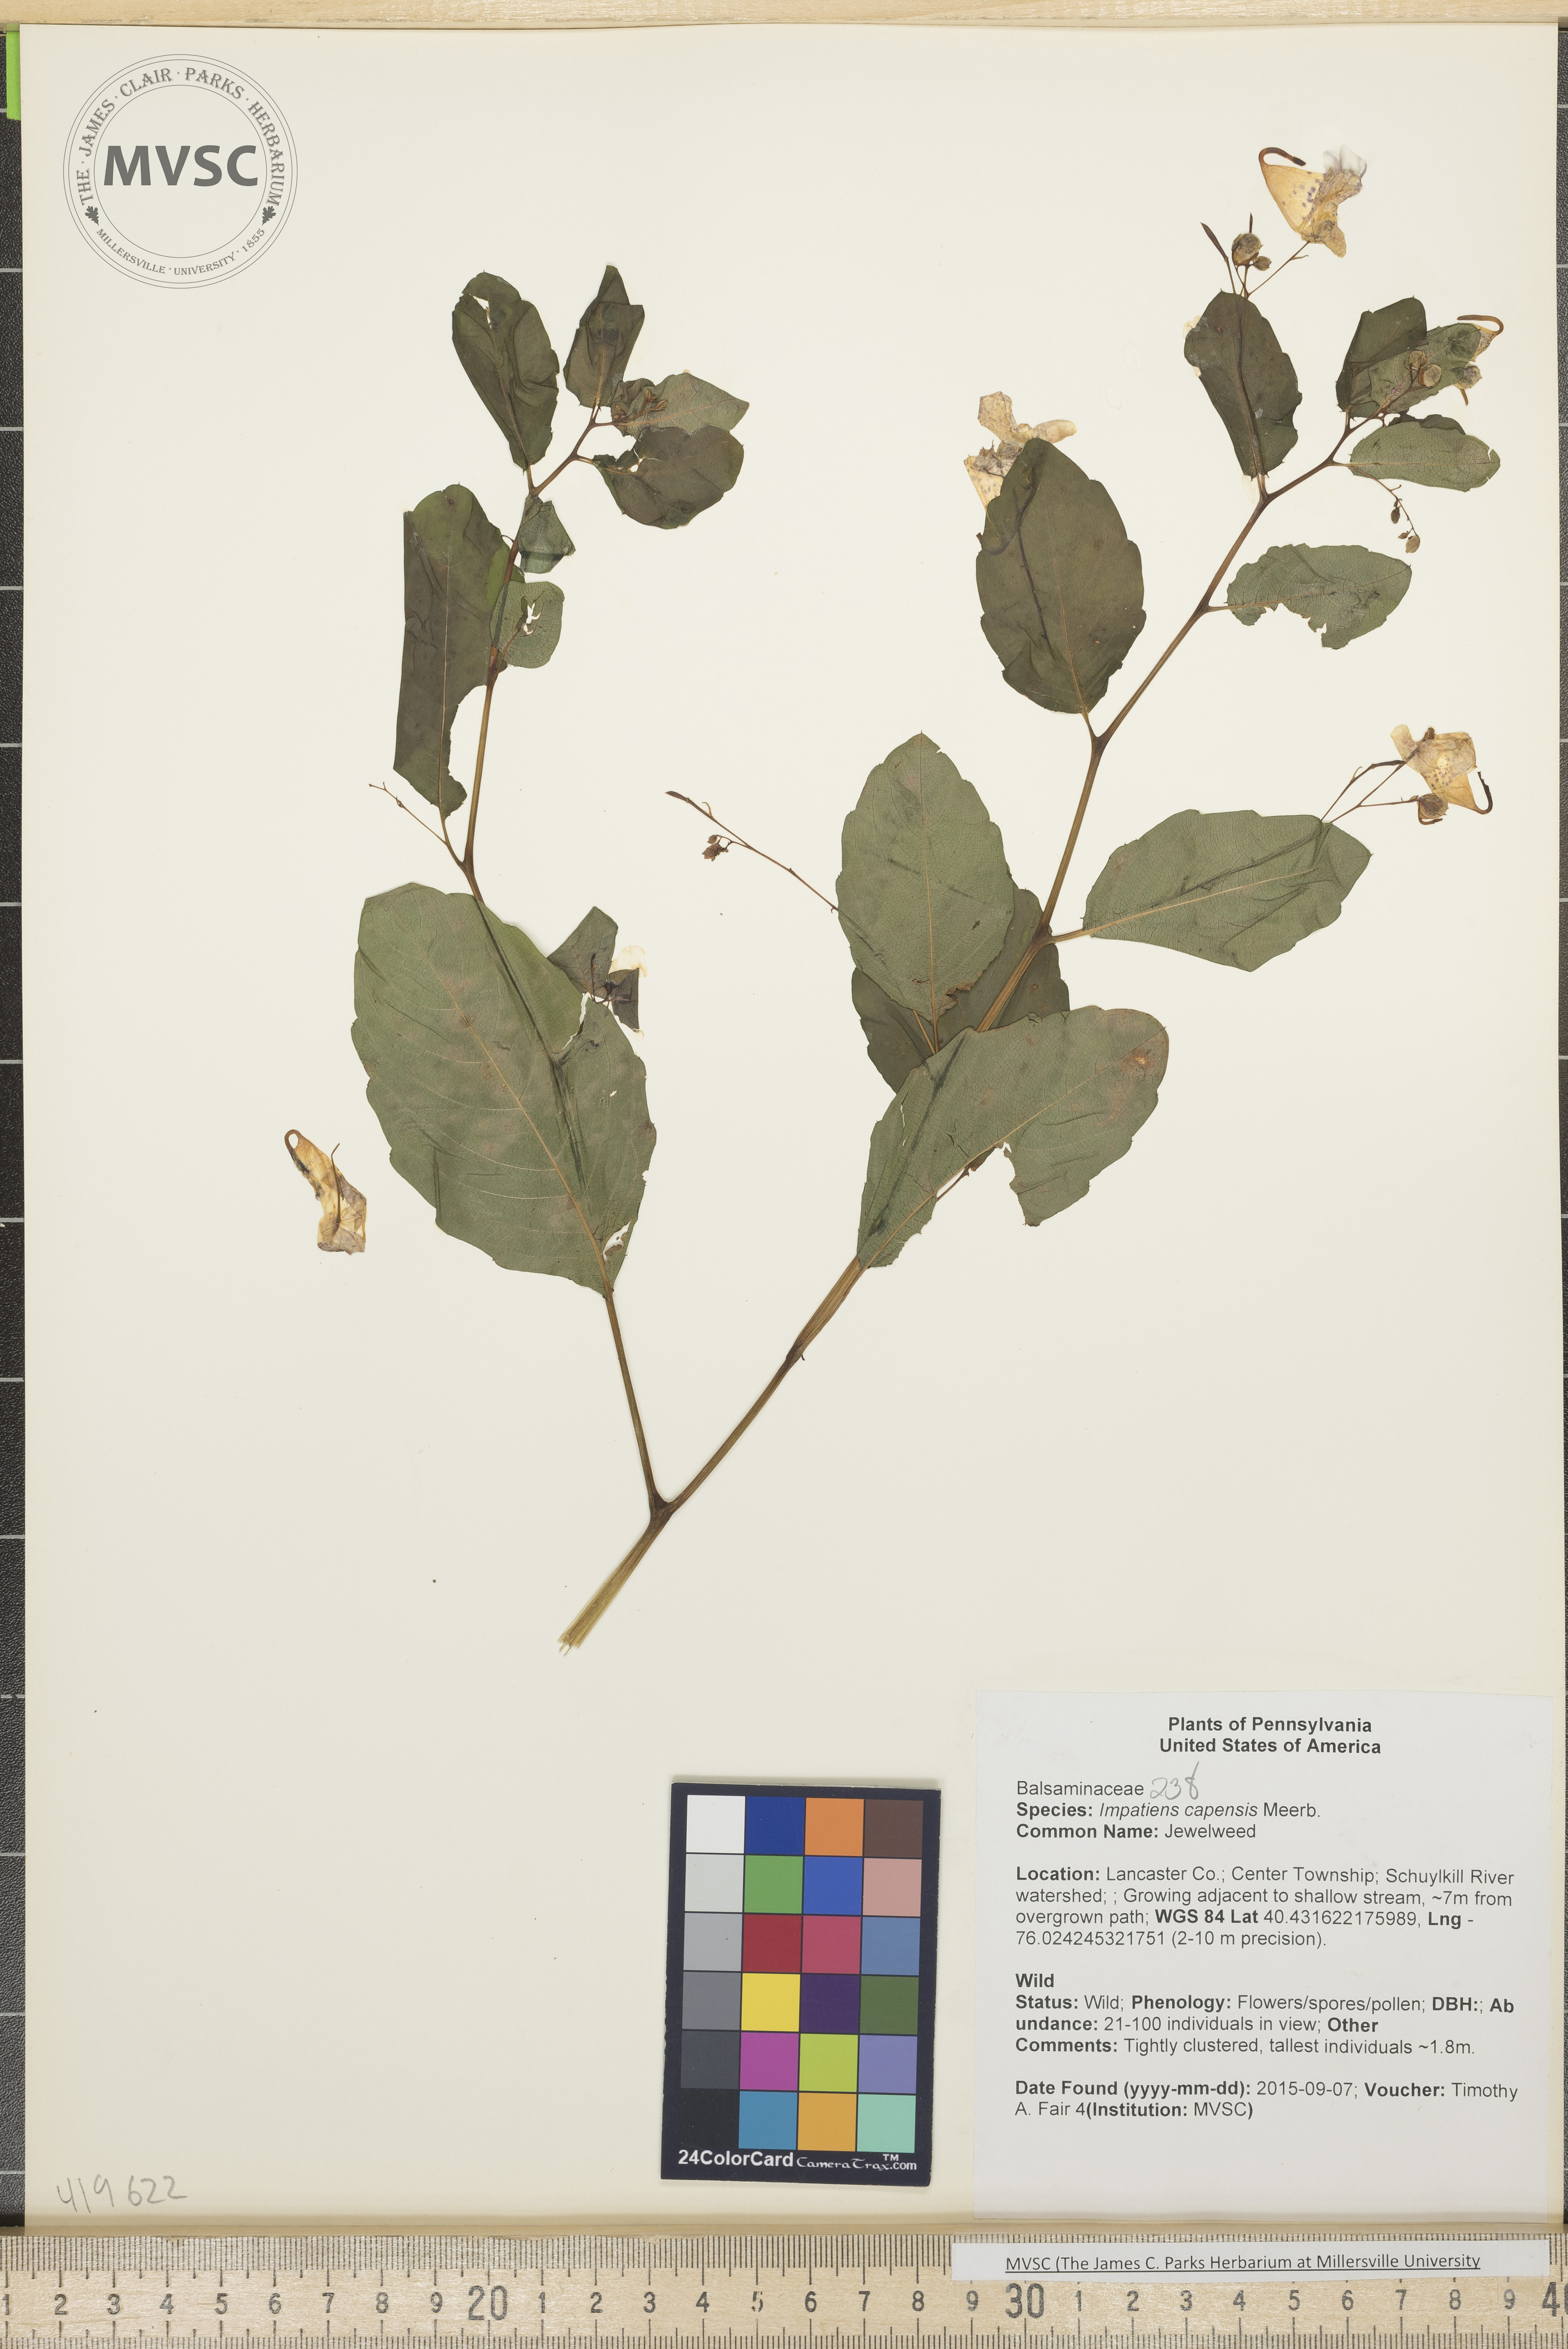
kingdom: Plantae
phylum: Tracheophyta
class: Magnoliopsida
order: Ericales
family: Balsaminaceae
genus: Impatiens
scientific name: Impatiens capensis
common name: Jewelweed
